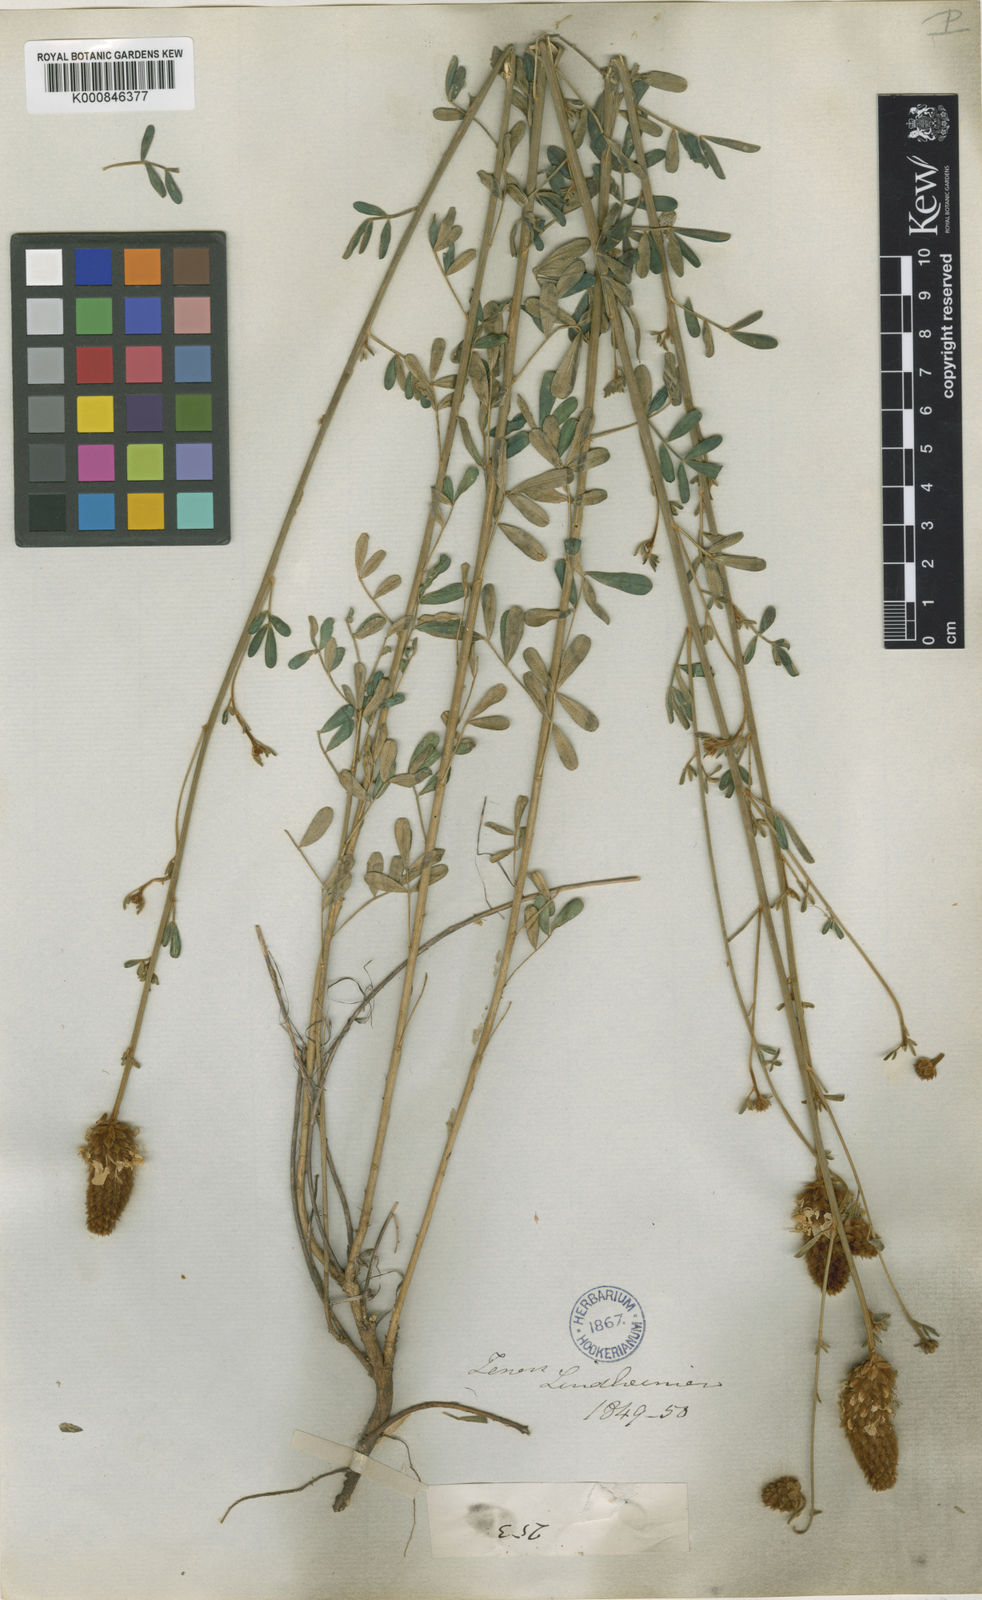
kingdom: Plantae
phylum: Tracheophyta
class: Magnoliopsida
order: Fabales
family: Fabaceae
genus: Dalea
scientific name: Dalea ornata
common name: Blue mountain prairie-clover
